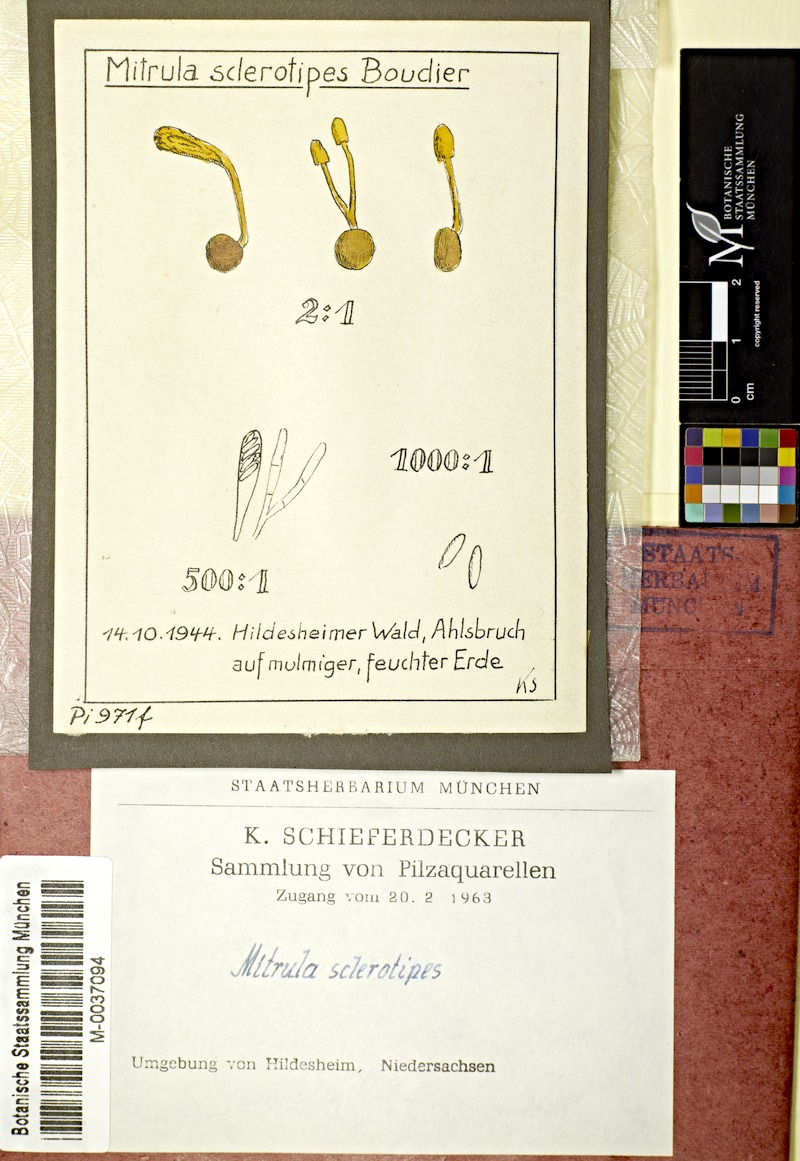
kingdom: Fungi
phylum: Ascomycota
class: Leotiomycetes
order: Helotiales
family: Helotiaceae
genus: Episclerotium
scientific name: Episclerotium sclerotipus
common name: Burning beacon
